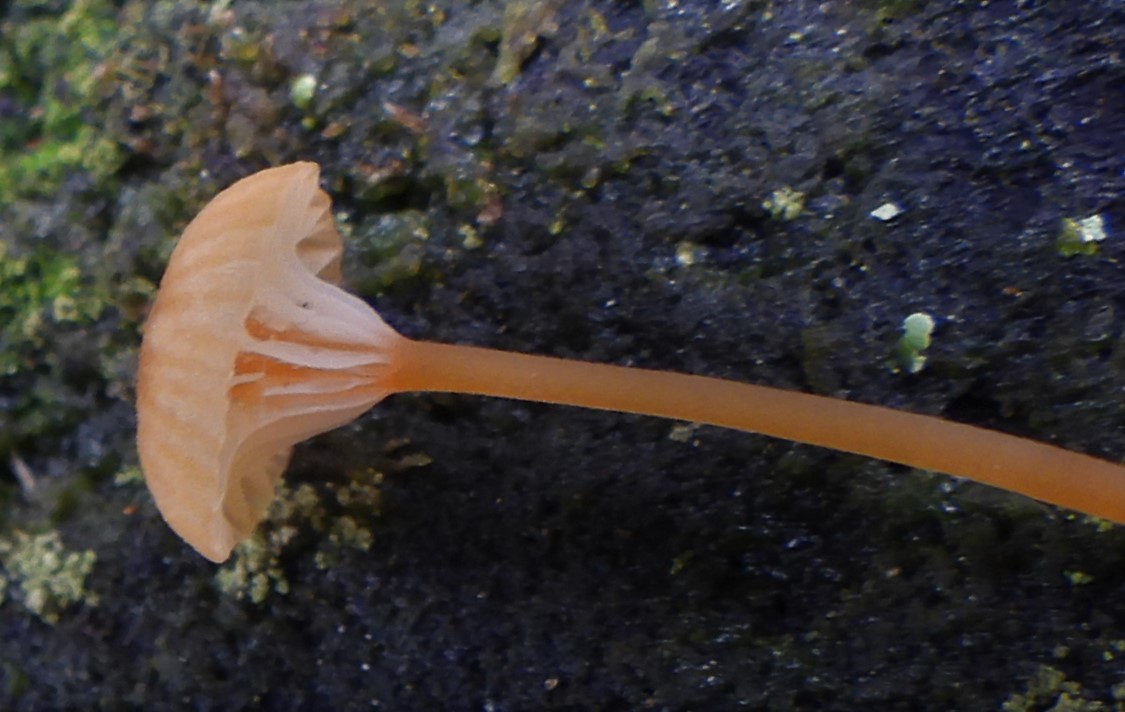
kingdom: Fungi
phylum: Basidiomycota
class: Agaricomycetes
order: Hymenochaetales
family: Rickenellaceae
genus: Rickenella
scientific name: Rickenella fibula
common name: orange mosnavlehat
